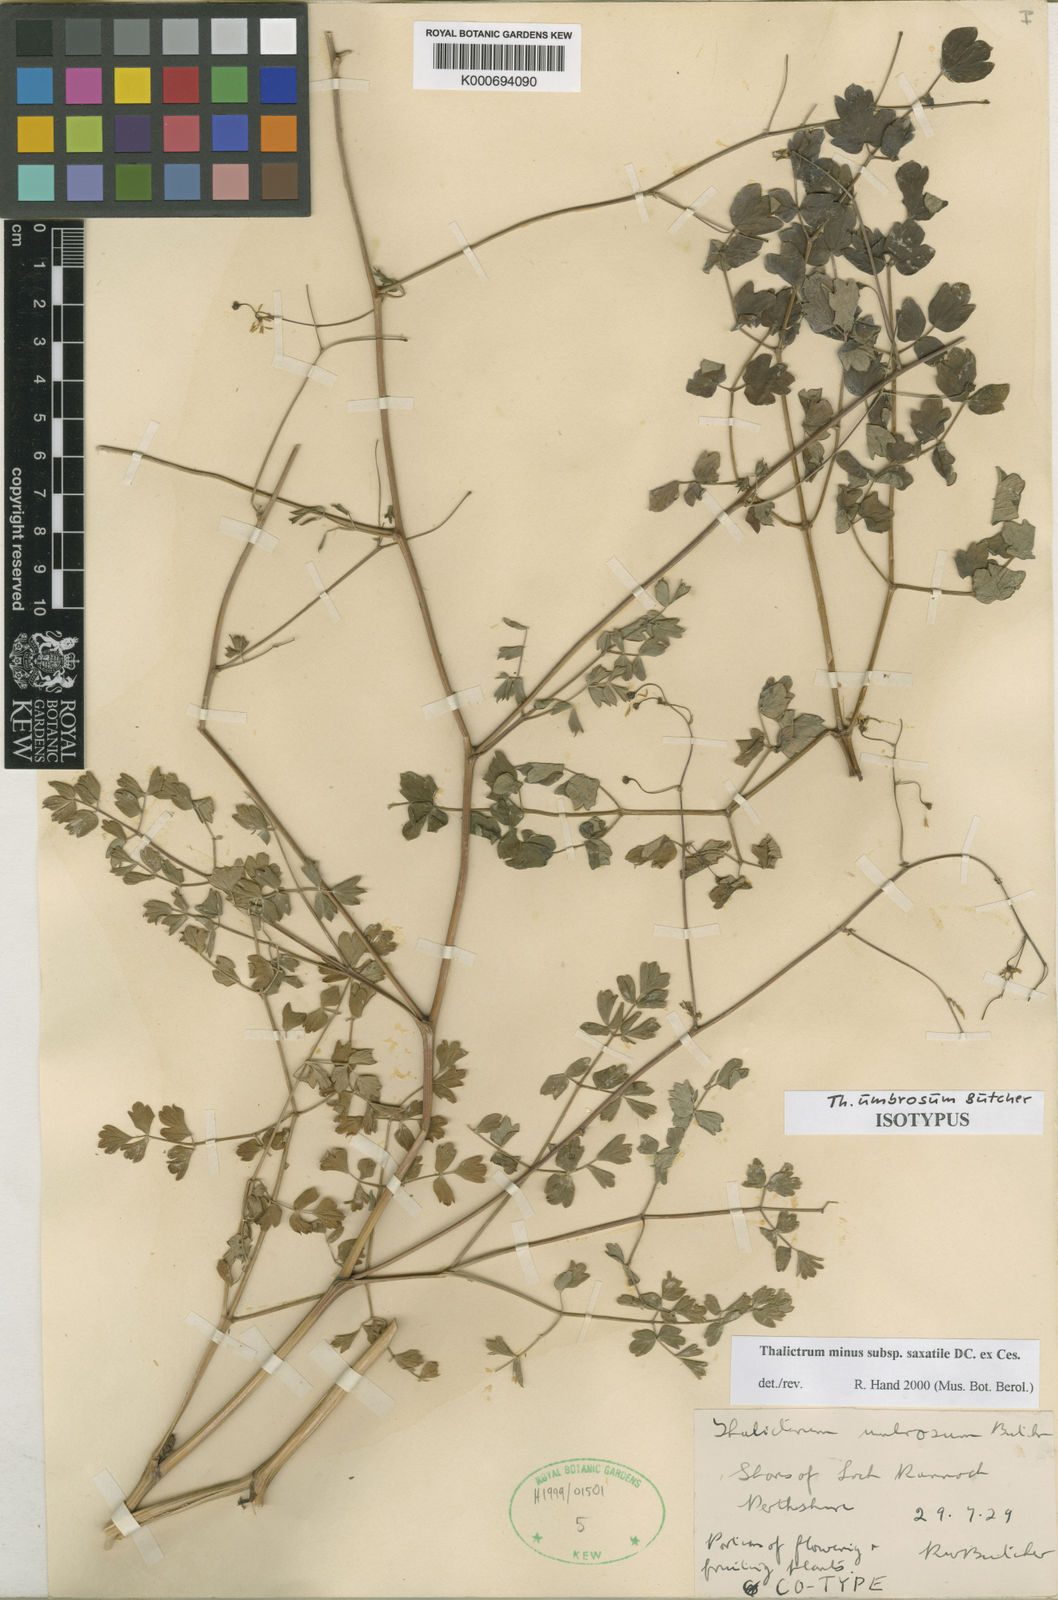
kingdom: Plantae
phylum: Tracheophyta
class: Magnoliopsida
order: Ranunculales
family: Ranunculaceae
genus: Thalictrum
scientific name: Thalictrum
